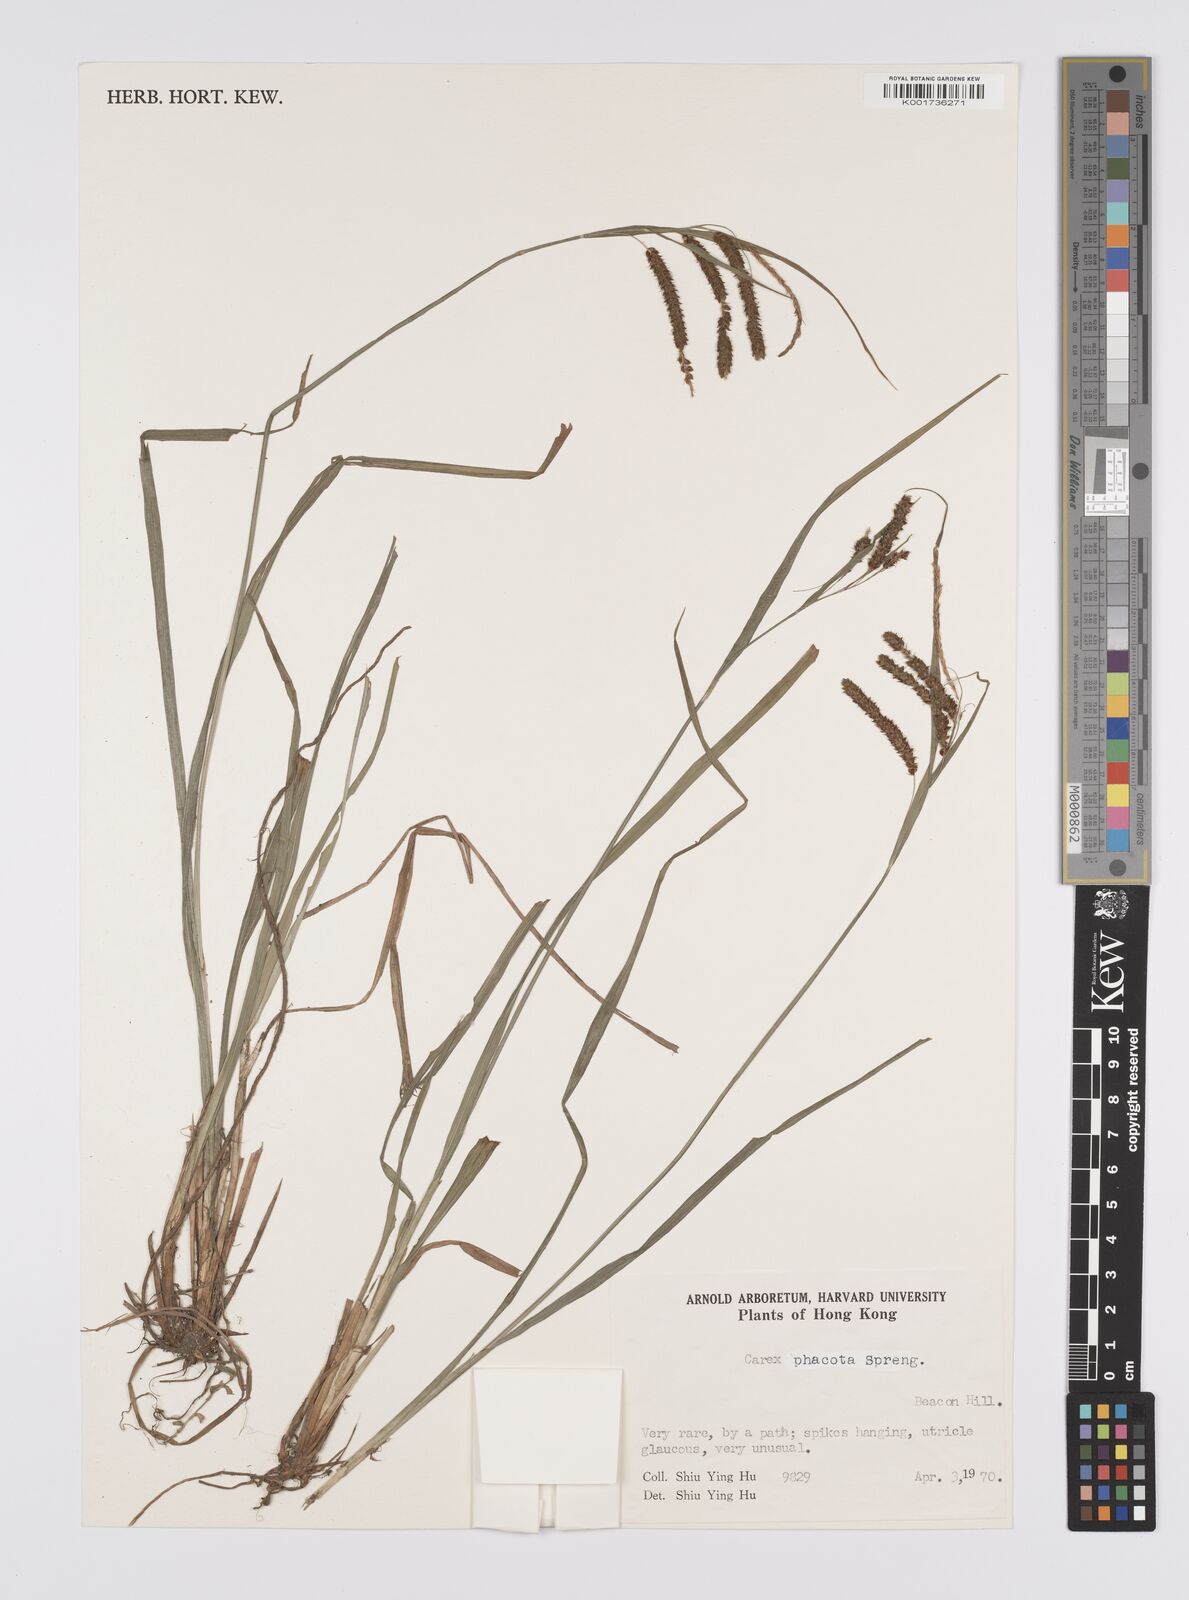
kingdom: Plantae
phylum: Tracheophyta
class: Liliopsida
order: Poales
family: Cyperaceae
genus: Carex
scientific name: Carex phacota
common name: Lakeshore sedge
